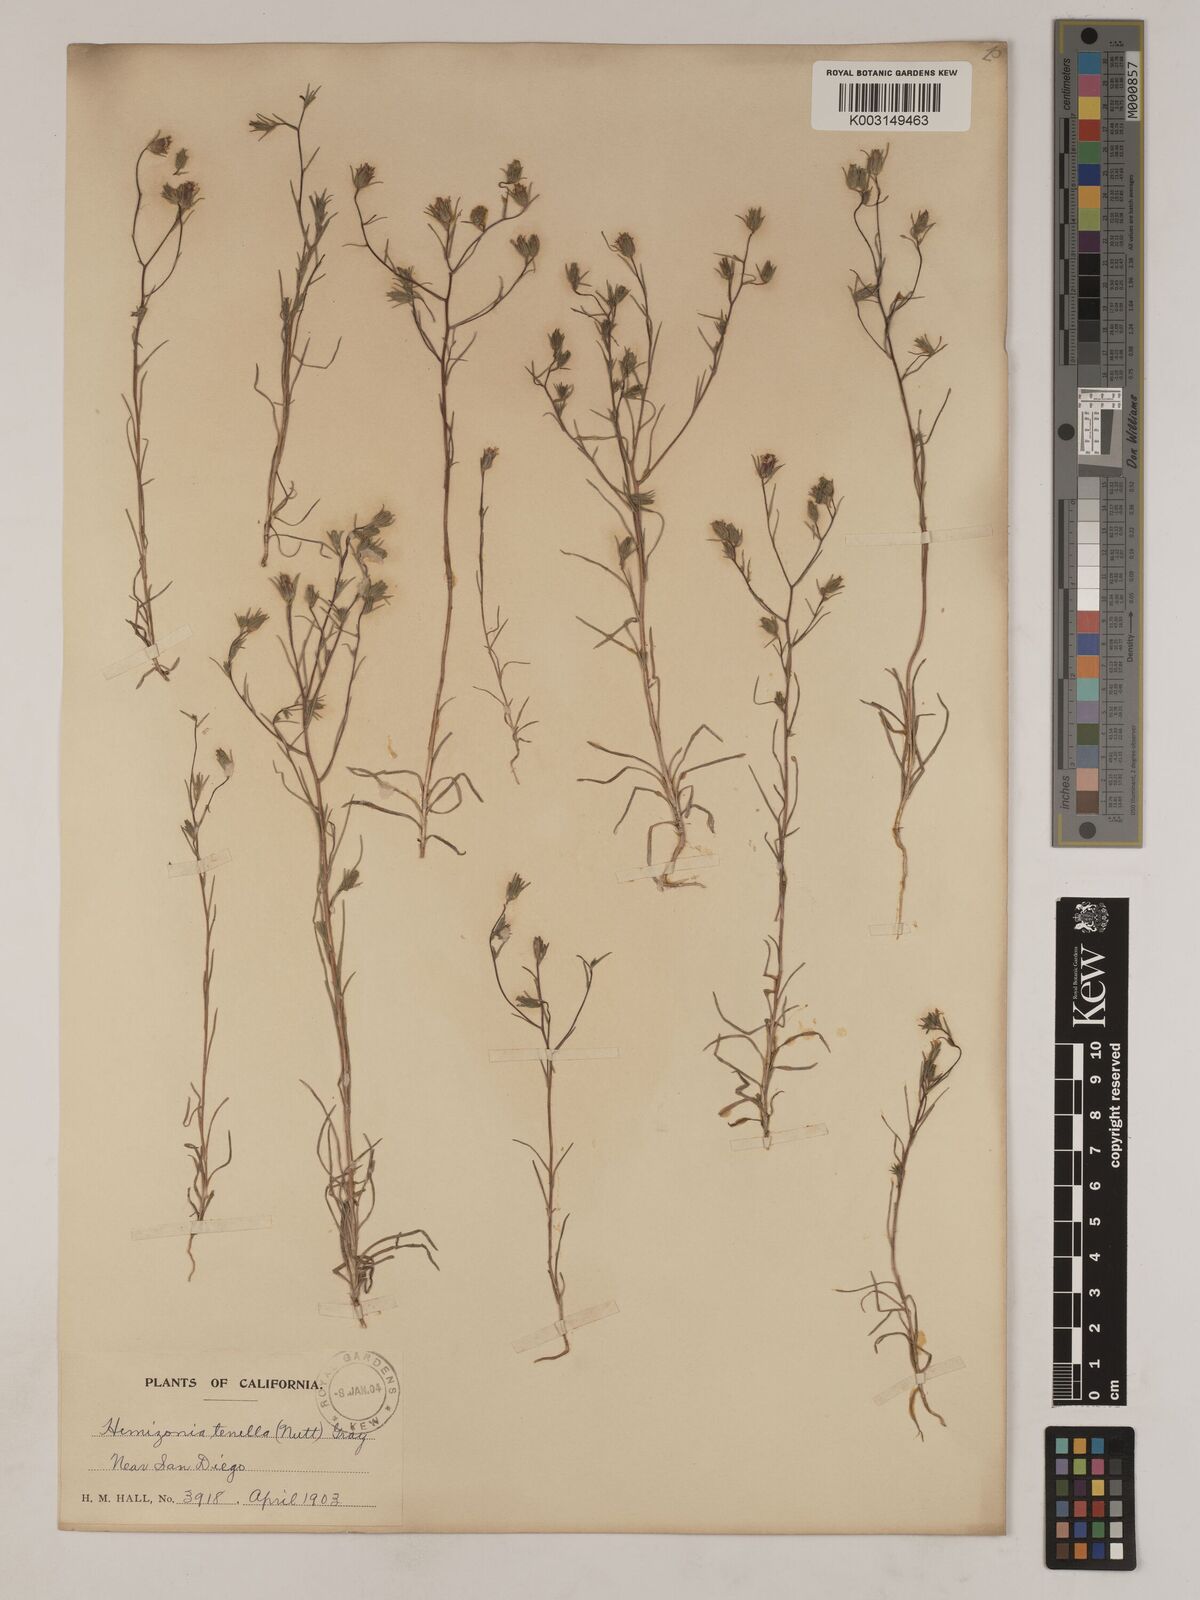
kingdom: Plantae
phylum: Tracheophyta
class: Magnoliopsida
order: Asterales
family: Asteraceae
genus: Osmadenia
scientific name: Osmadenia tenella
